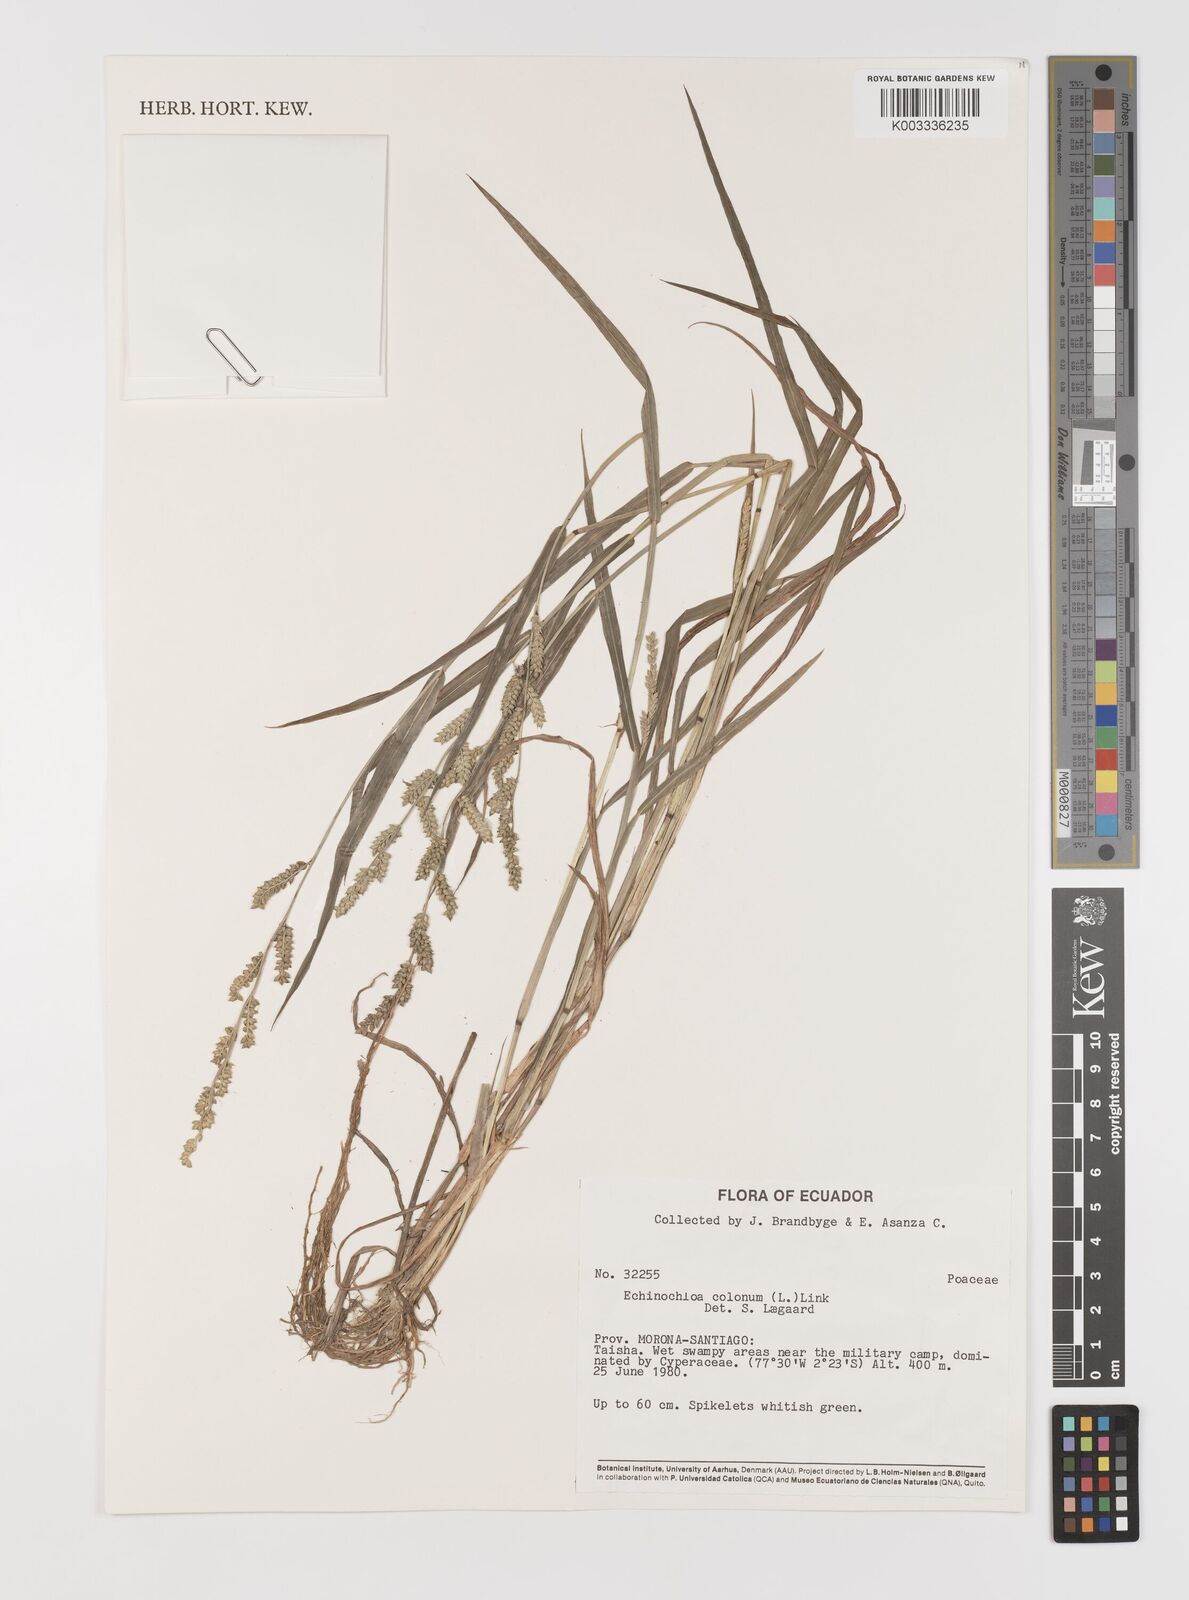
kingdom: Plantae
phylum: Tracheophyta
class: Liliopsida
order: Poales
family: Poaceae
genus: Echinochloa
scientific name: Echinochloa colonum
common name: Jungle rice
